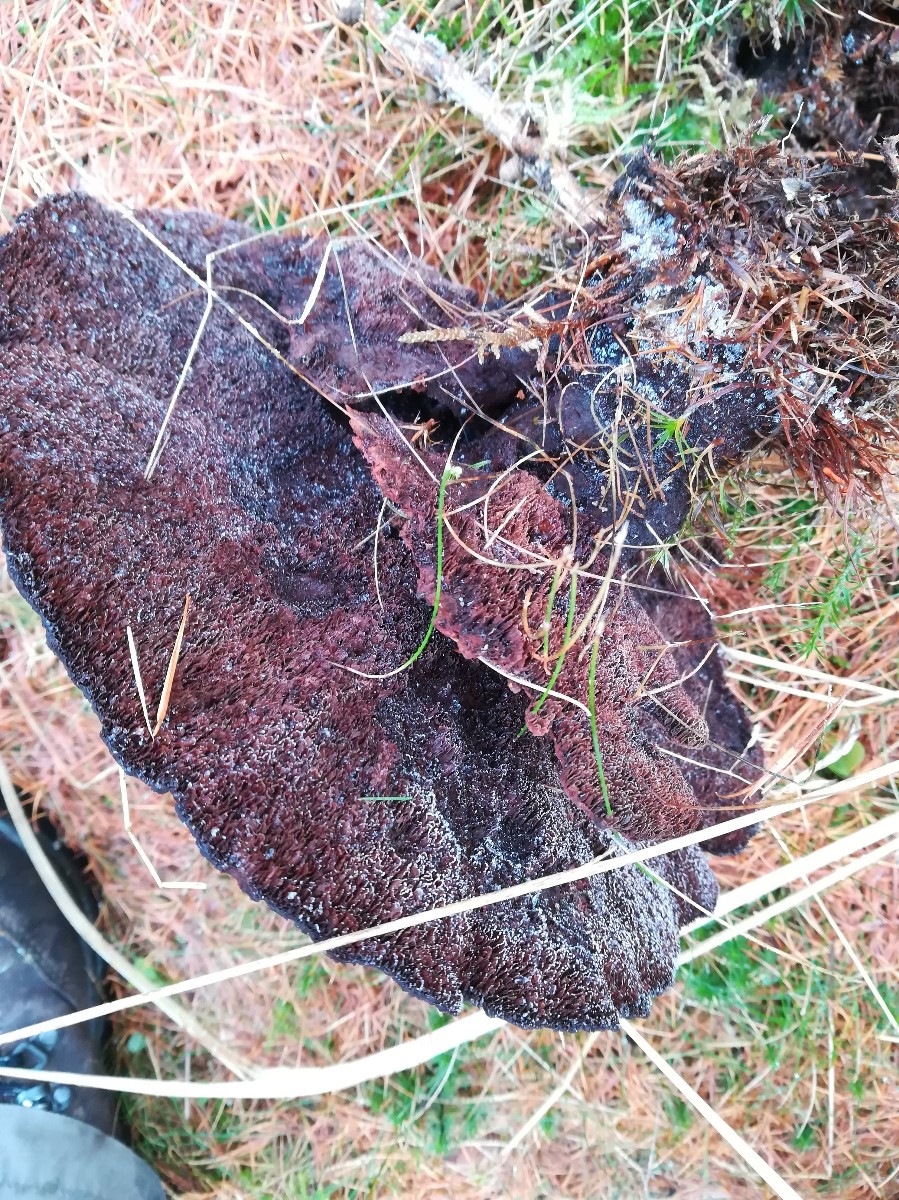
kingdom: Fungi
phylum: Basidiomycota
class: Agaricomycetes
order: Polyporales
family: Laetiporaceae
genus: Phaeolus
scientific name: Phaeolus schweinitzii
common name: brunporesvamp
